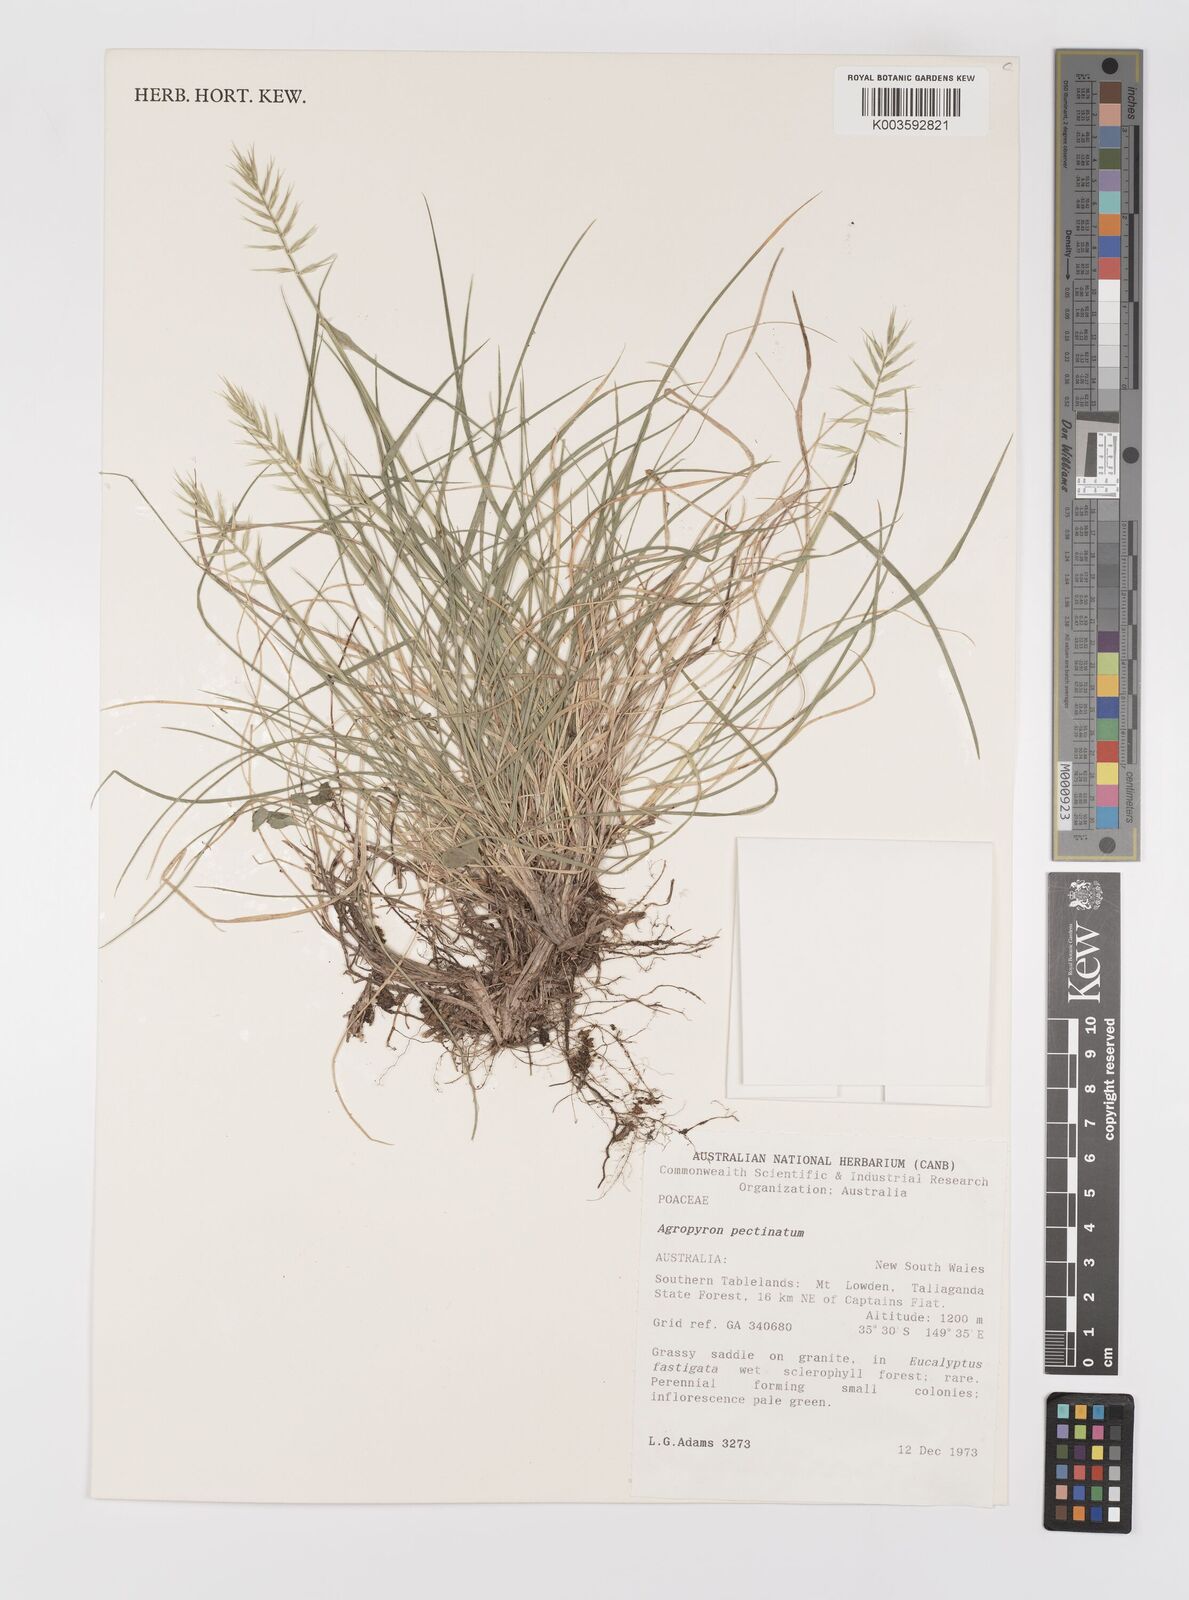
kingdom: Plantae
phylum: Tracheophyta
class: Liliopsida
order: Poales
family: Poaceae
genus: Australopyrum
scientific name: Australopyrum pectinatum
